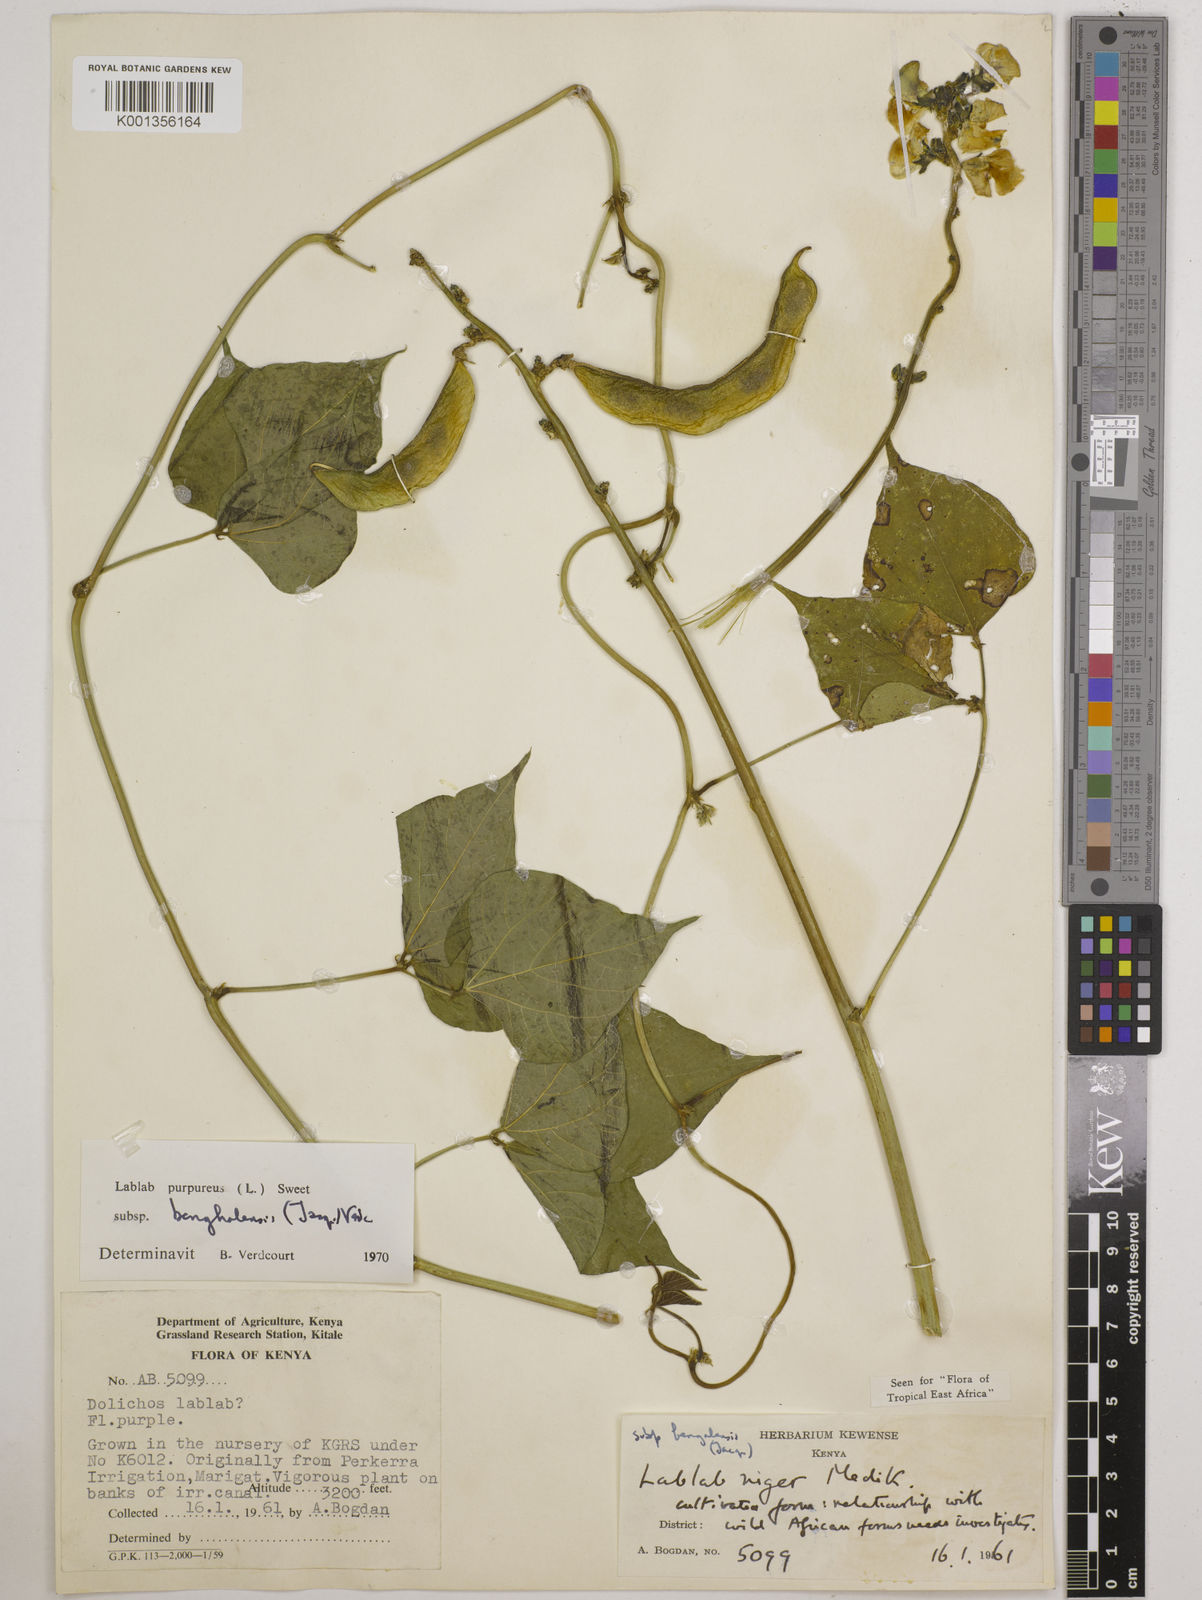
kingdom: Plantae
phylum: Tracheophyta
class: Magnoliopsida
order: Fabales
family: Fabaceae
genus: Lablab
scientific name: Lablab purpureus
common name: Lablab-bean
